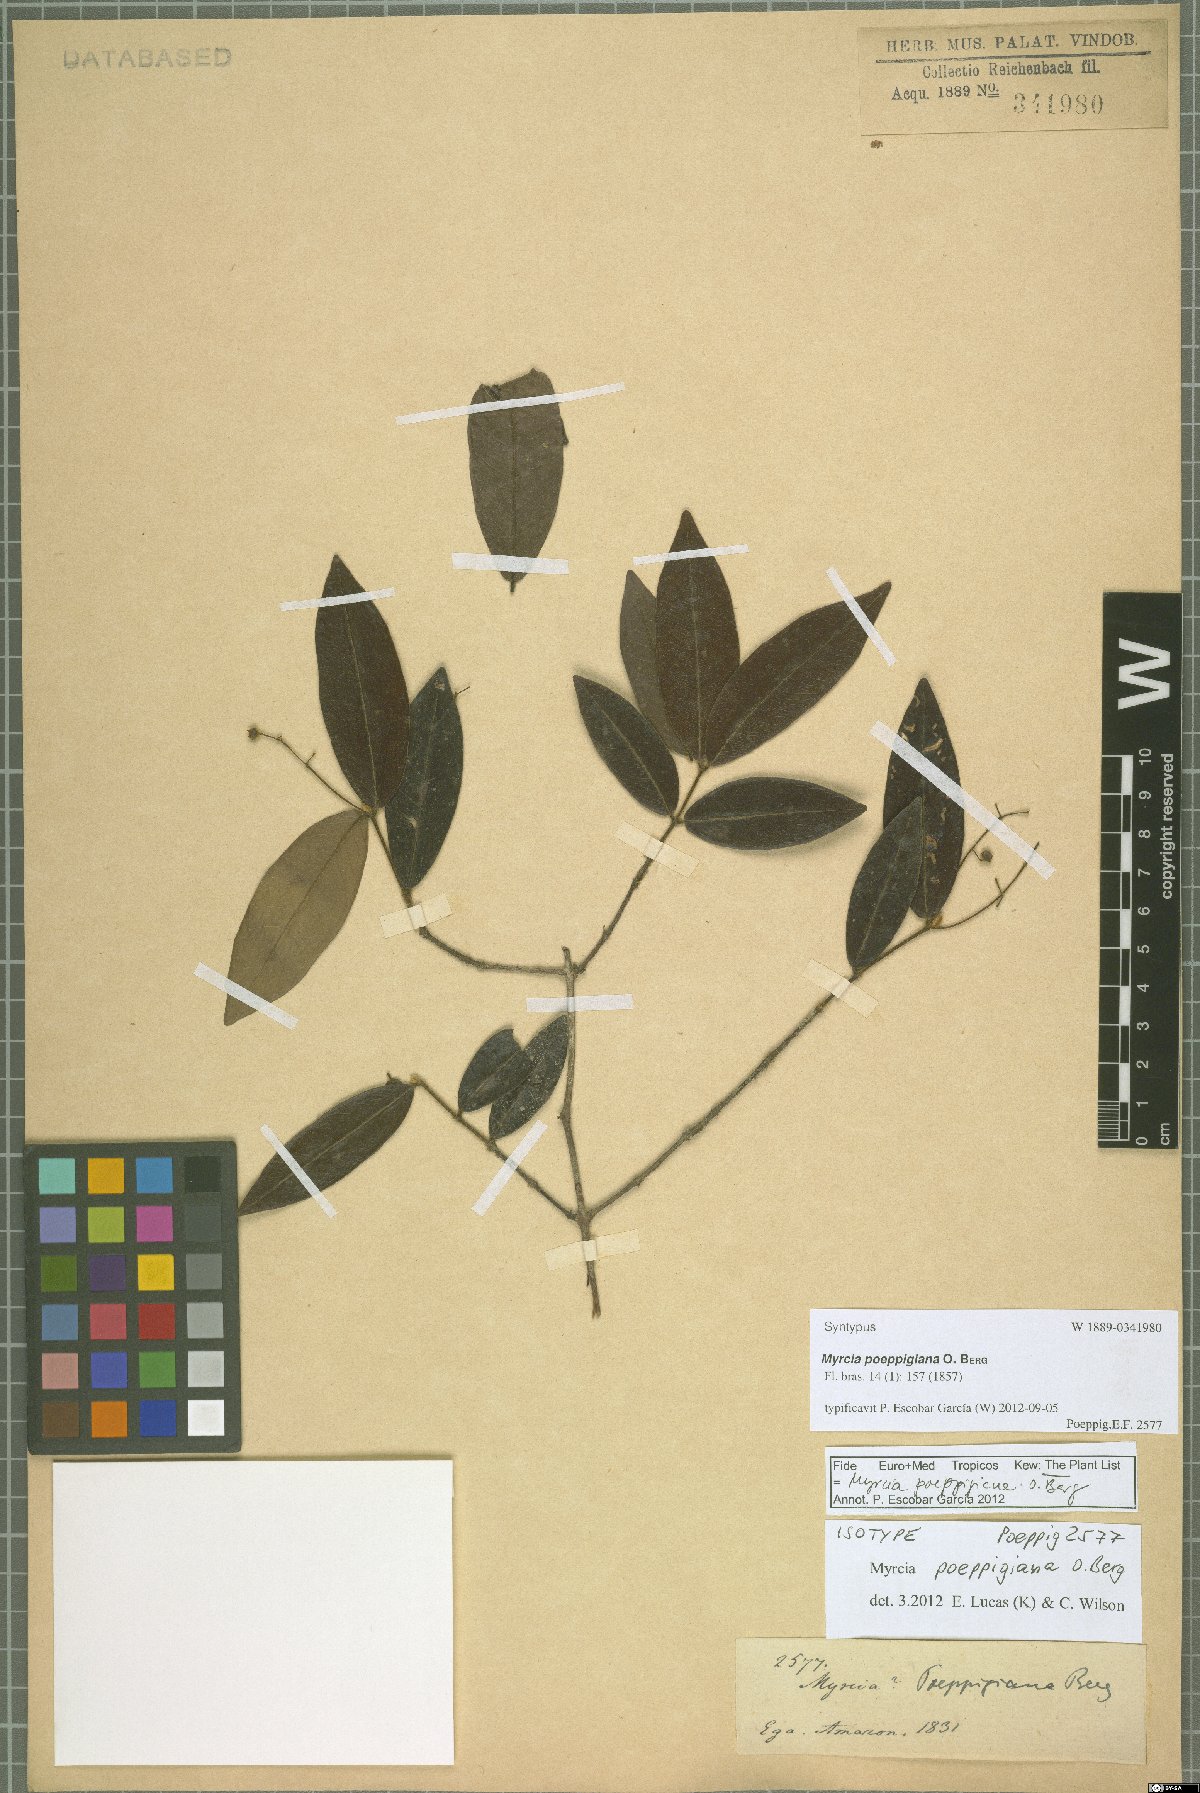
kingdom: Plantae
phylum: Tracheophyta
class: Magnoliopsida
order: Myrtales
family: Myrtaceae
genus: Myrcia
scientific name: Myrcia poeppigiana
